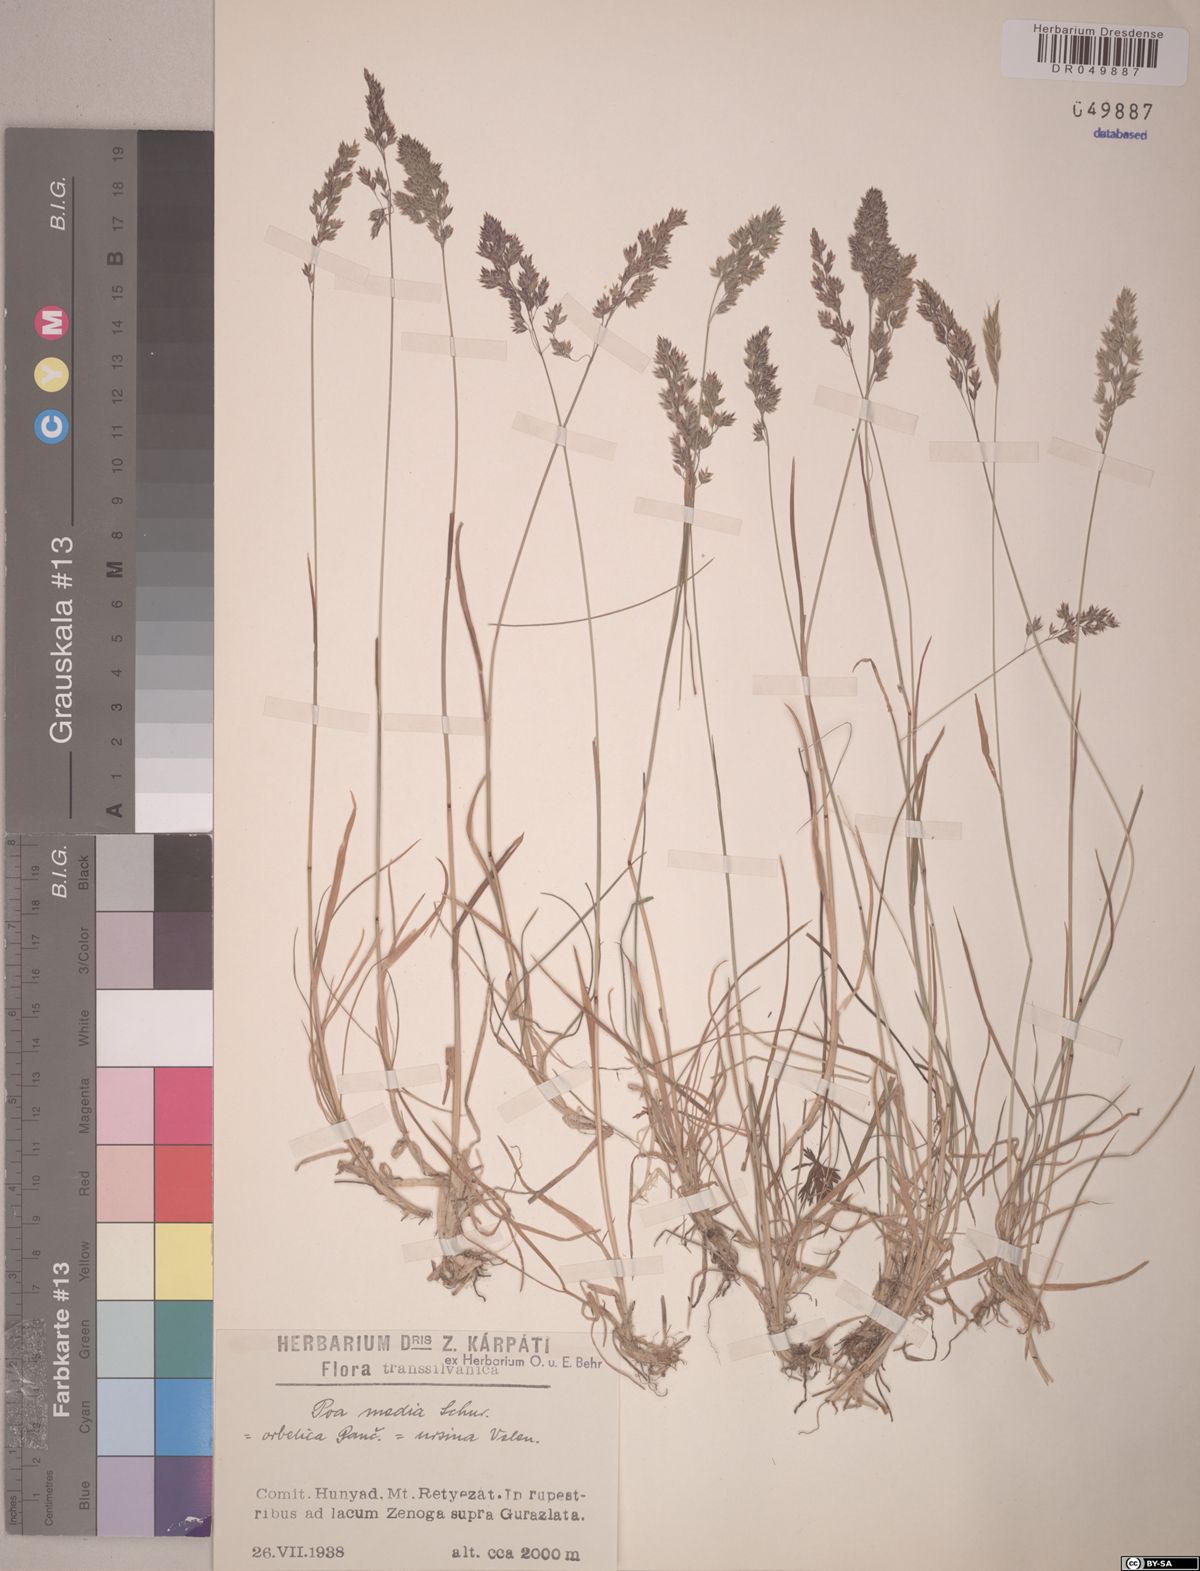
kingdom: Plantae
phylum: Tracheophyta
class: Liliopsida
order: Poales
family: Poaceae
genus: Poa
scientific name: Poa ursina
